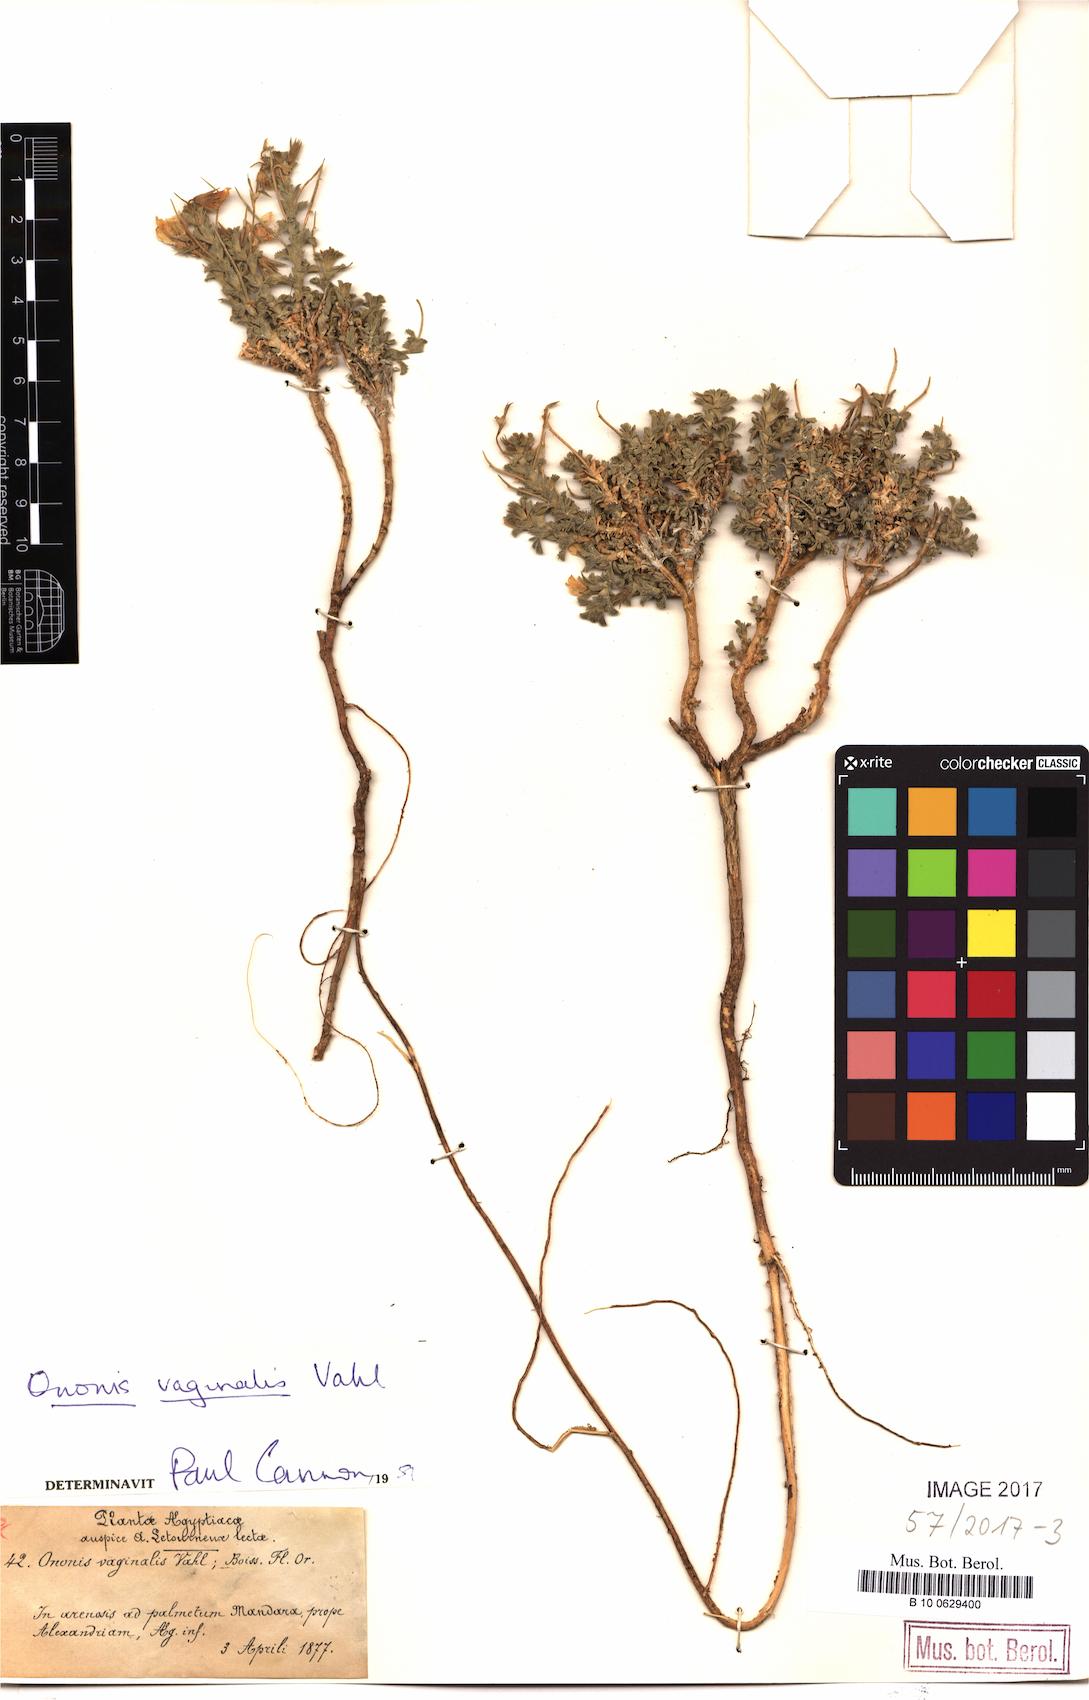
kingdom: Plantae
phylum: Tracheophyta
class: Magnoliopsida
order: Fabales
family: Fabaceae
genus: Ononis
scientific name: Ononis vaginalis
